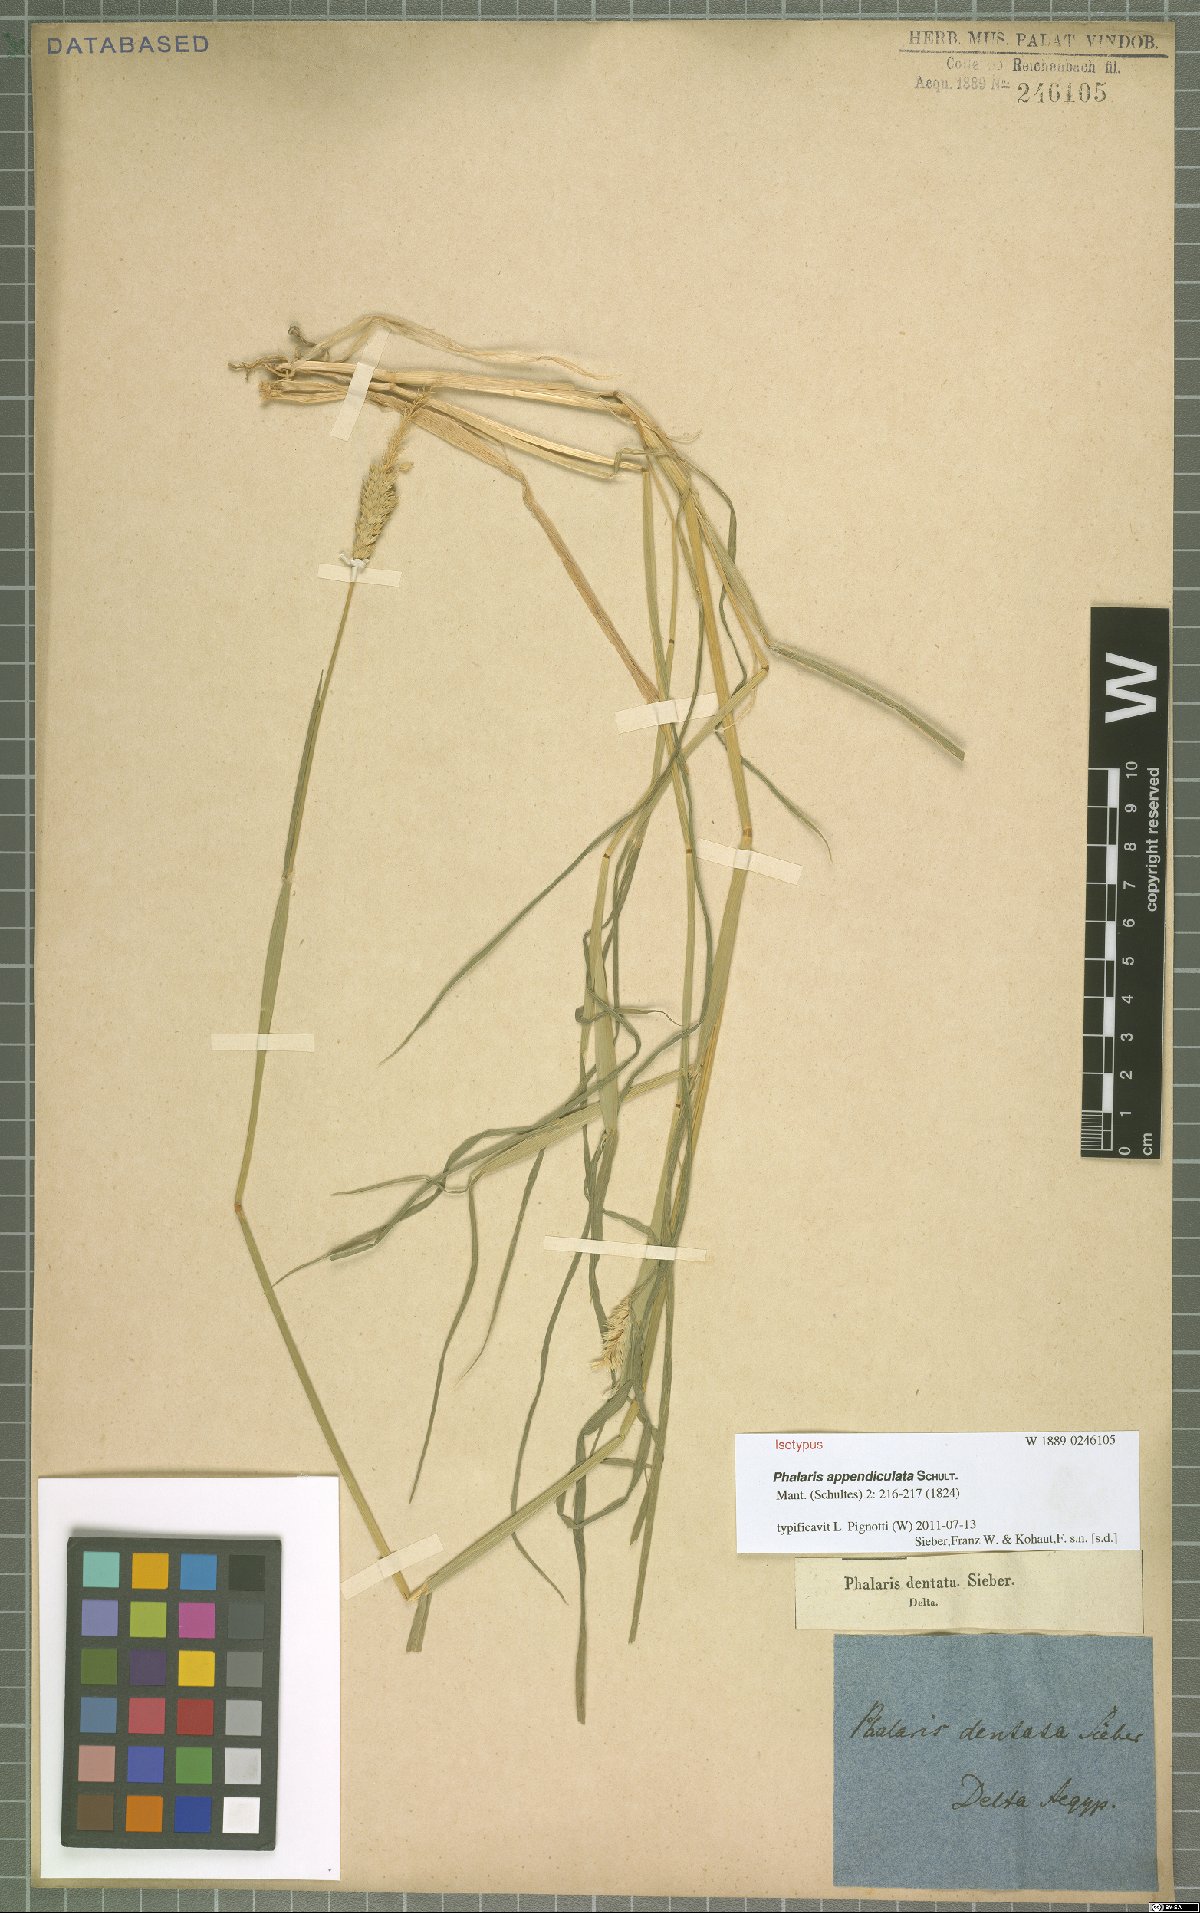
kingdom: Plantae
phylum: Tracheophyta
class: Liliopsida
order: Poales
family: Poaceae
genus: Phalaris
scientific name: Phalaris paradoxa
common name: Awned canary-grass
